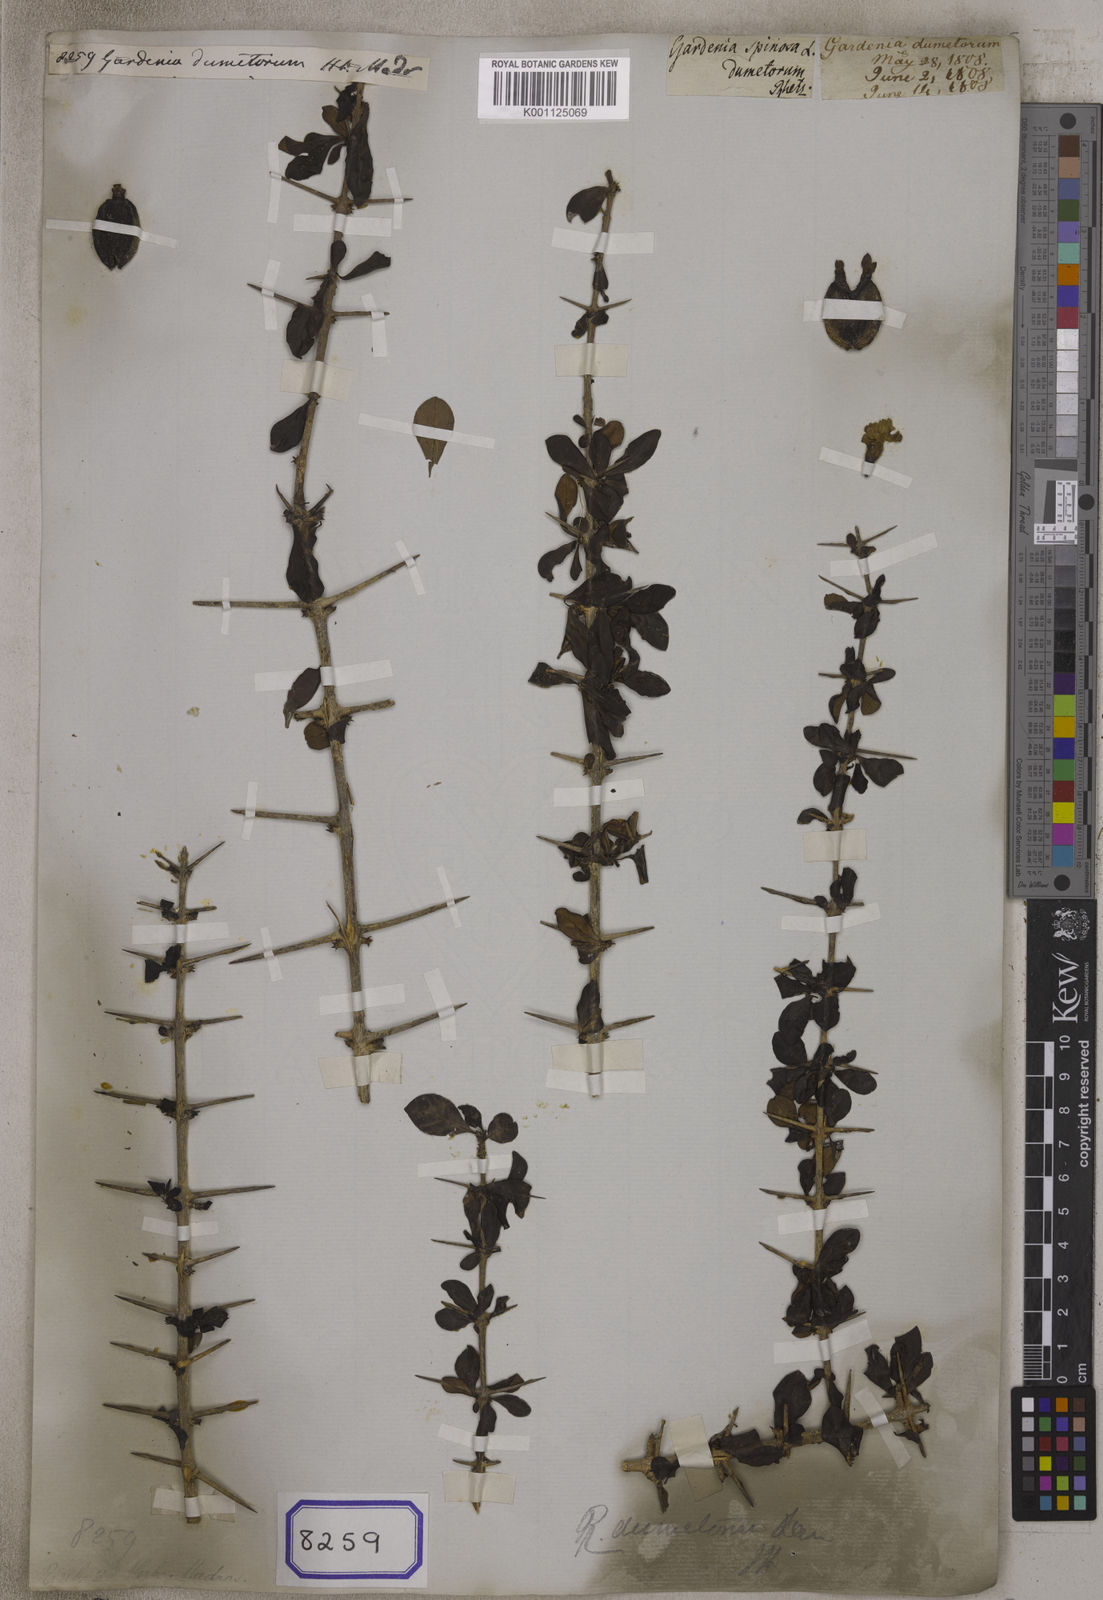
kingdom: Plantae
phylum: Tracheophyta
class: Magnoliopsida
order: Gentianales
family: Rubiaceae
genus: Catunaregam
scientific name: Catunaregam spinosa
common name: Emetic-nut
